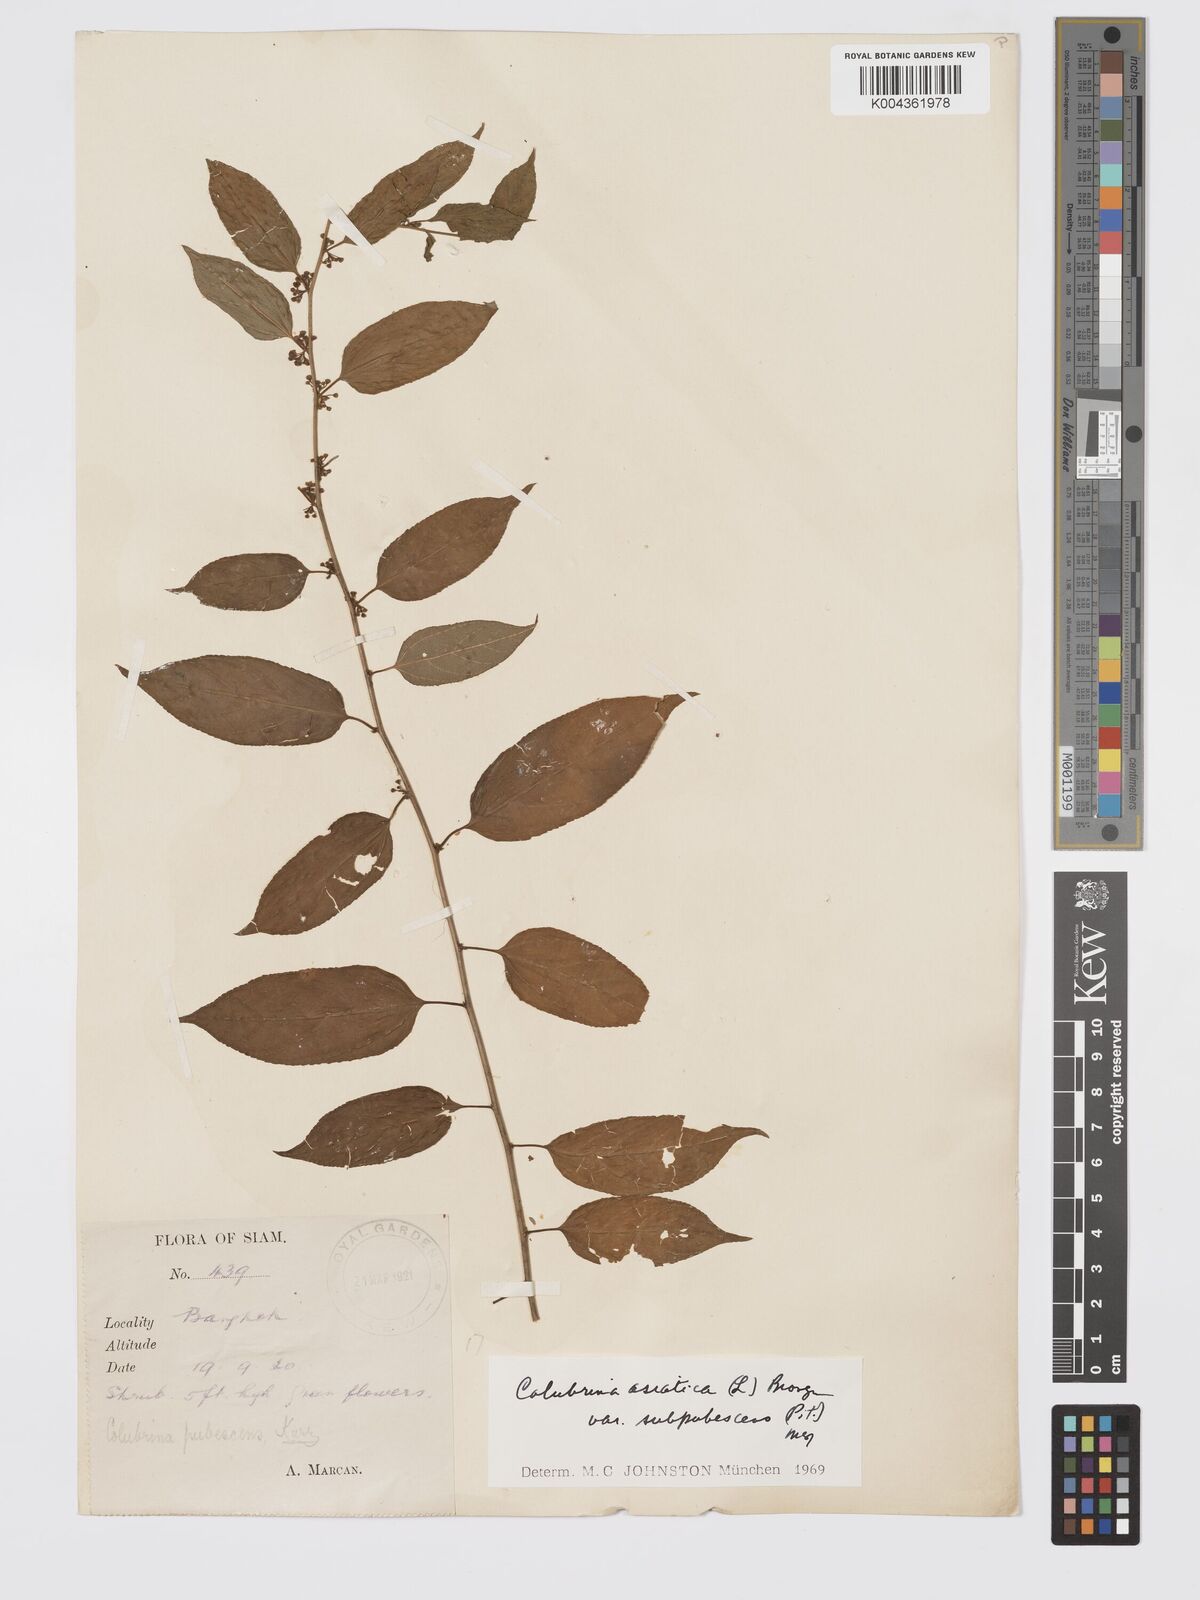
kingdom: Plantae
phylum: Tracheophyta
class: Magnoliopsida
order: Rosales
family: Rhamnaceae
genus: Colubrina
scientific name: Colubrina javanica
